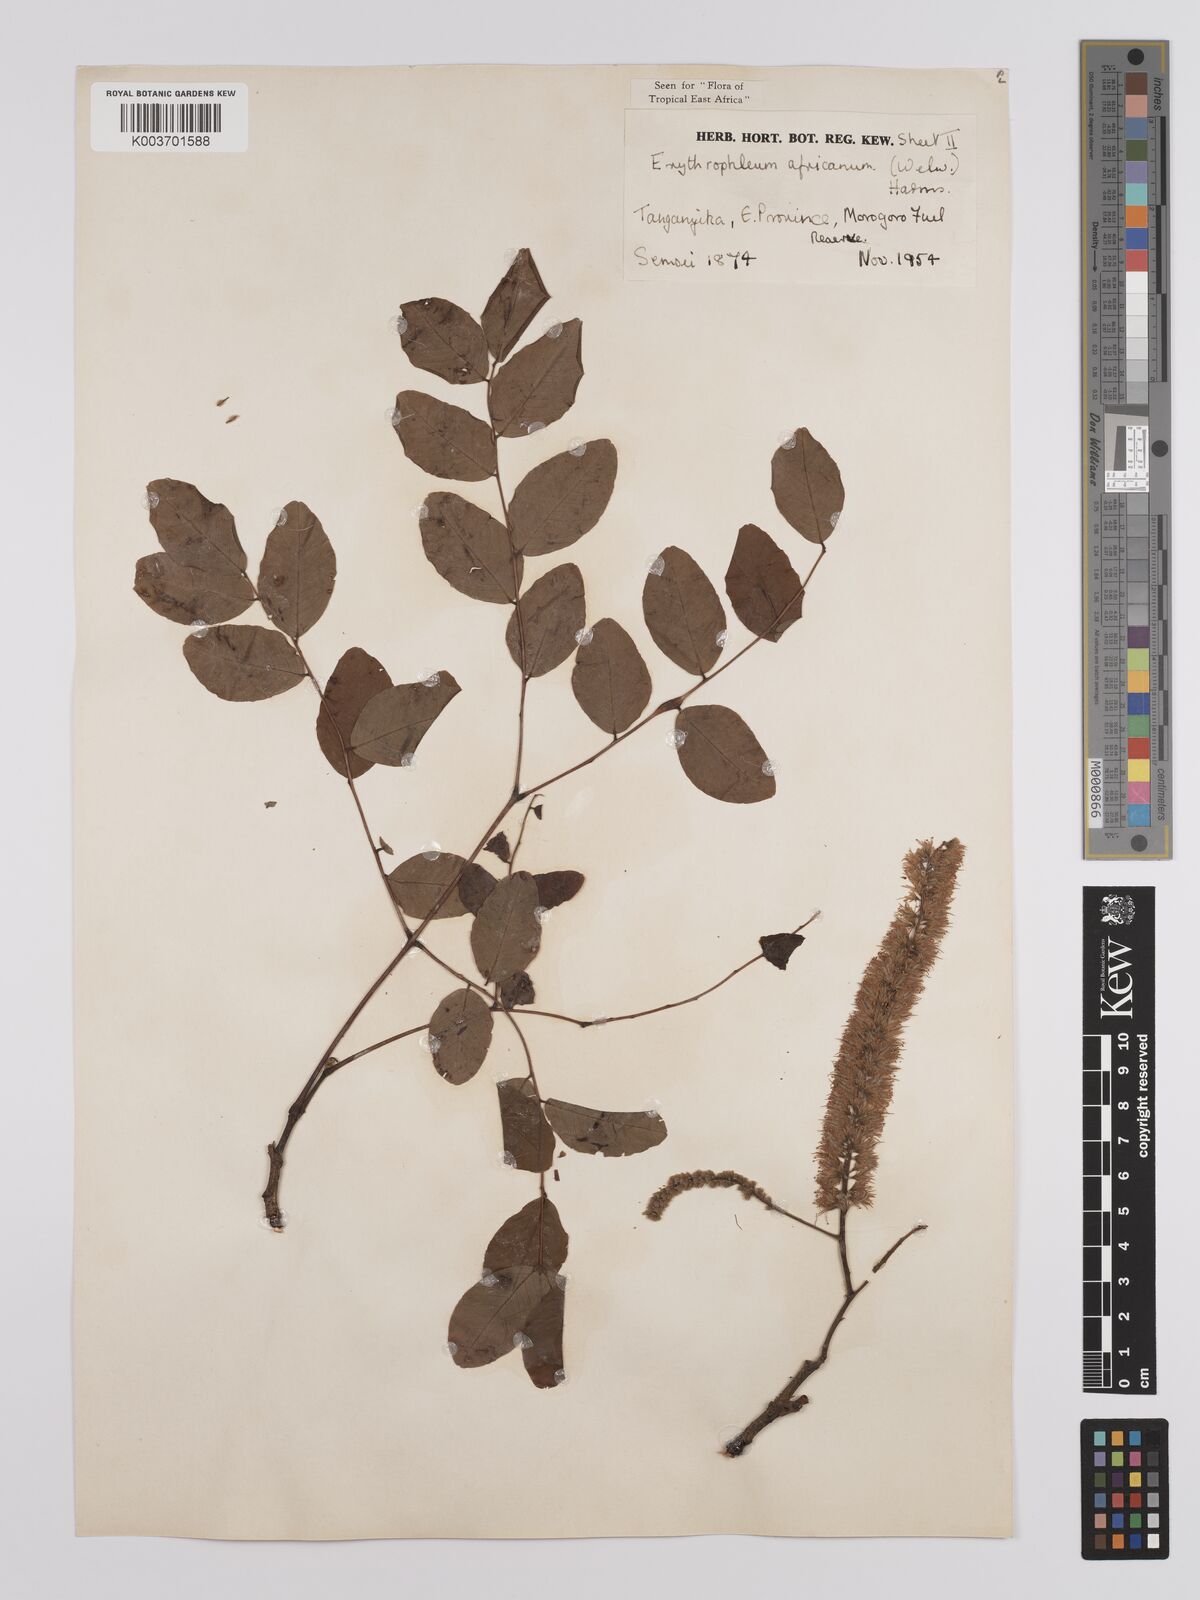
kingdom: Plantae
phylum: Tracheophyta
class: Magnoliopsida
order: Fabales
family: Fabaceae
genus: Erythrophleum
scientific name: Erythrophleum africanum
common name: African blackwood
